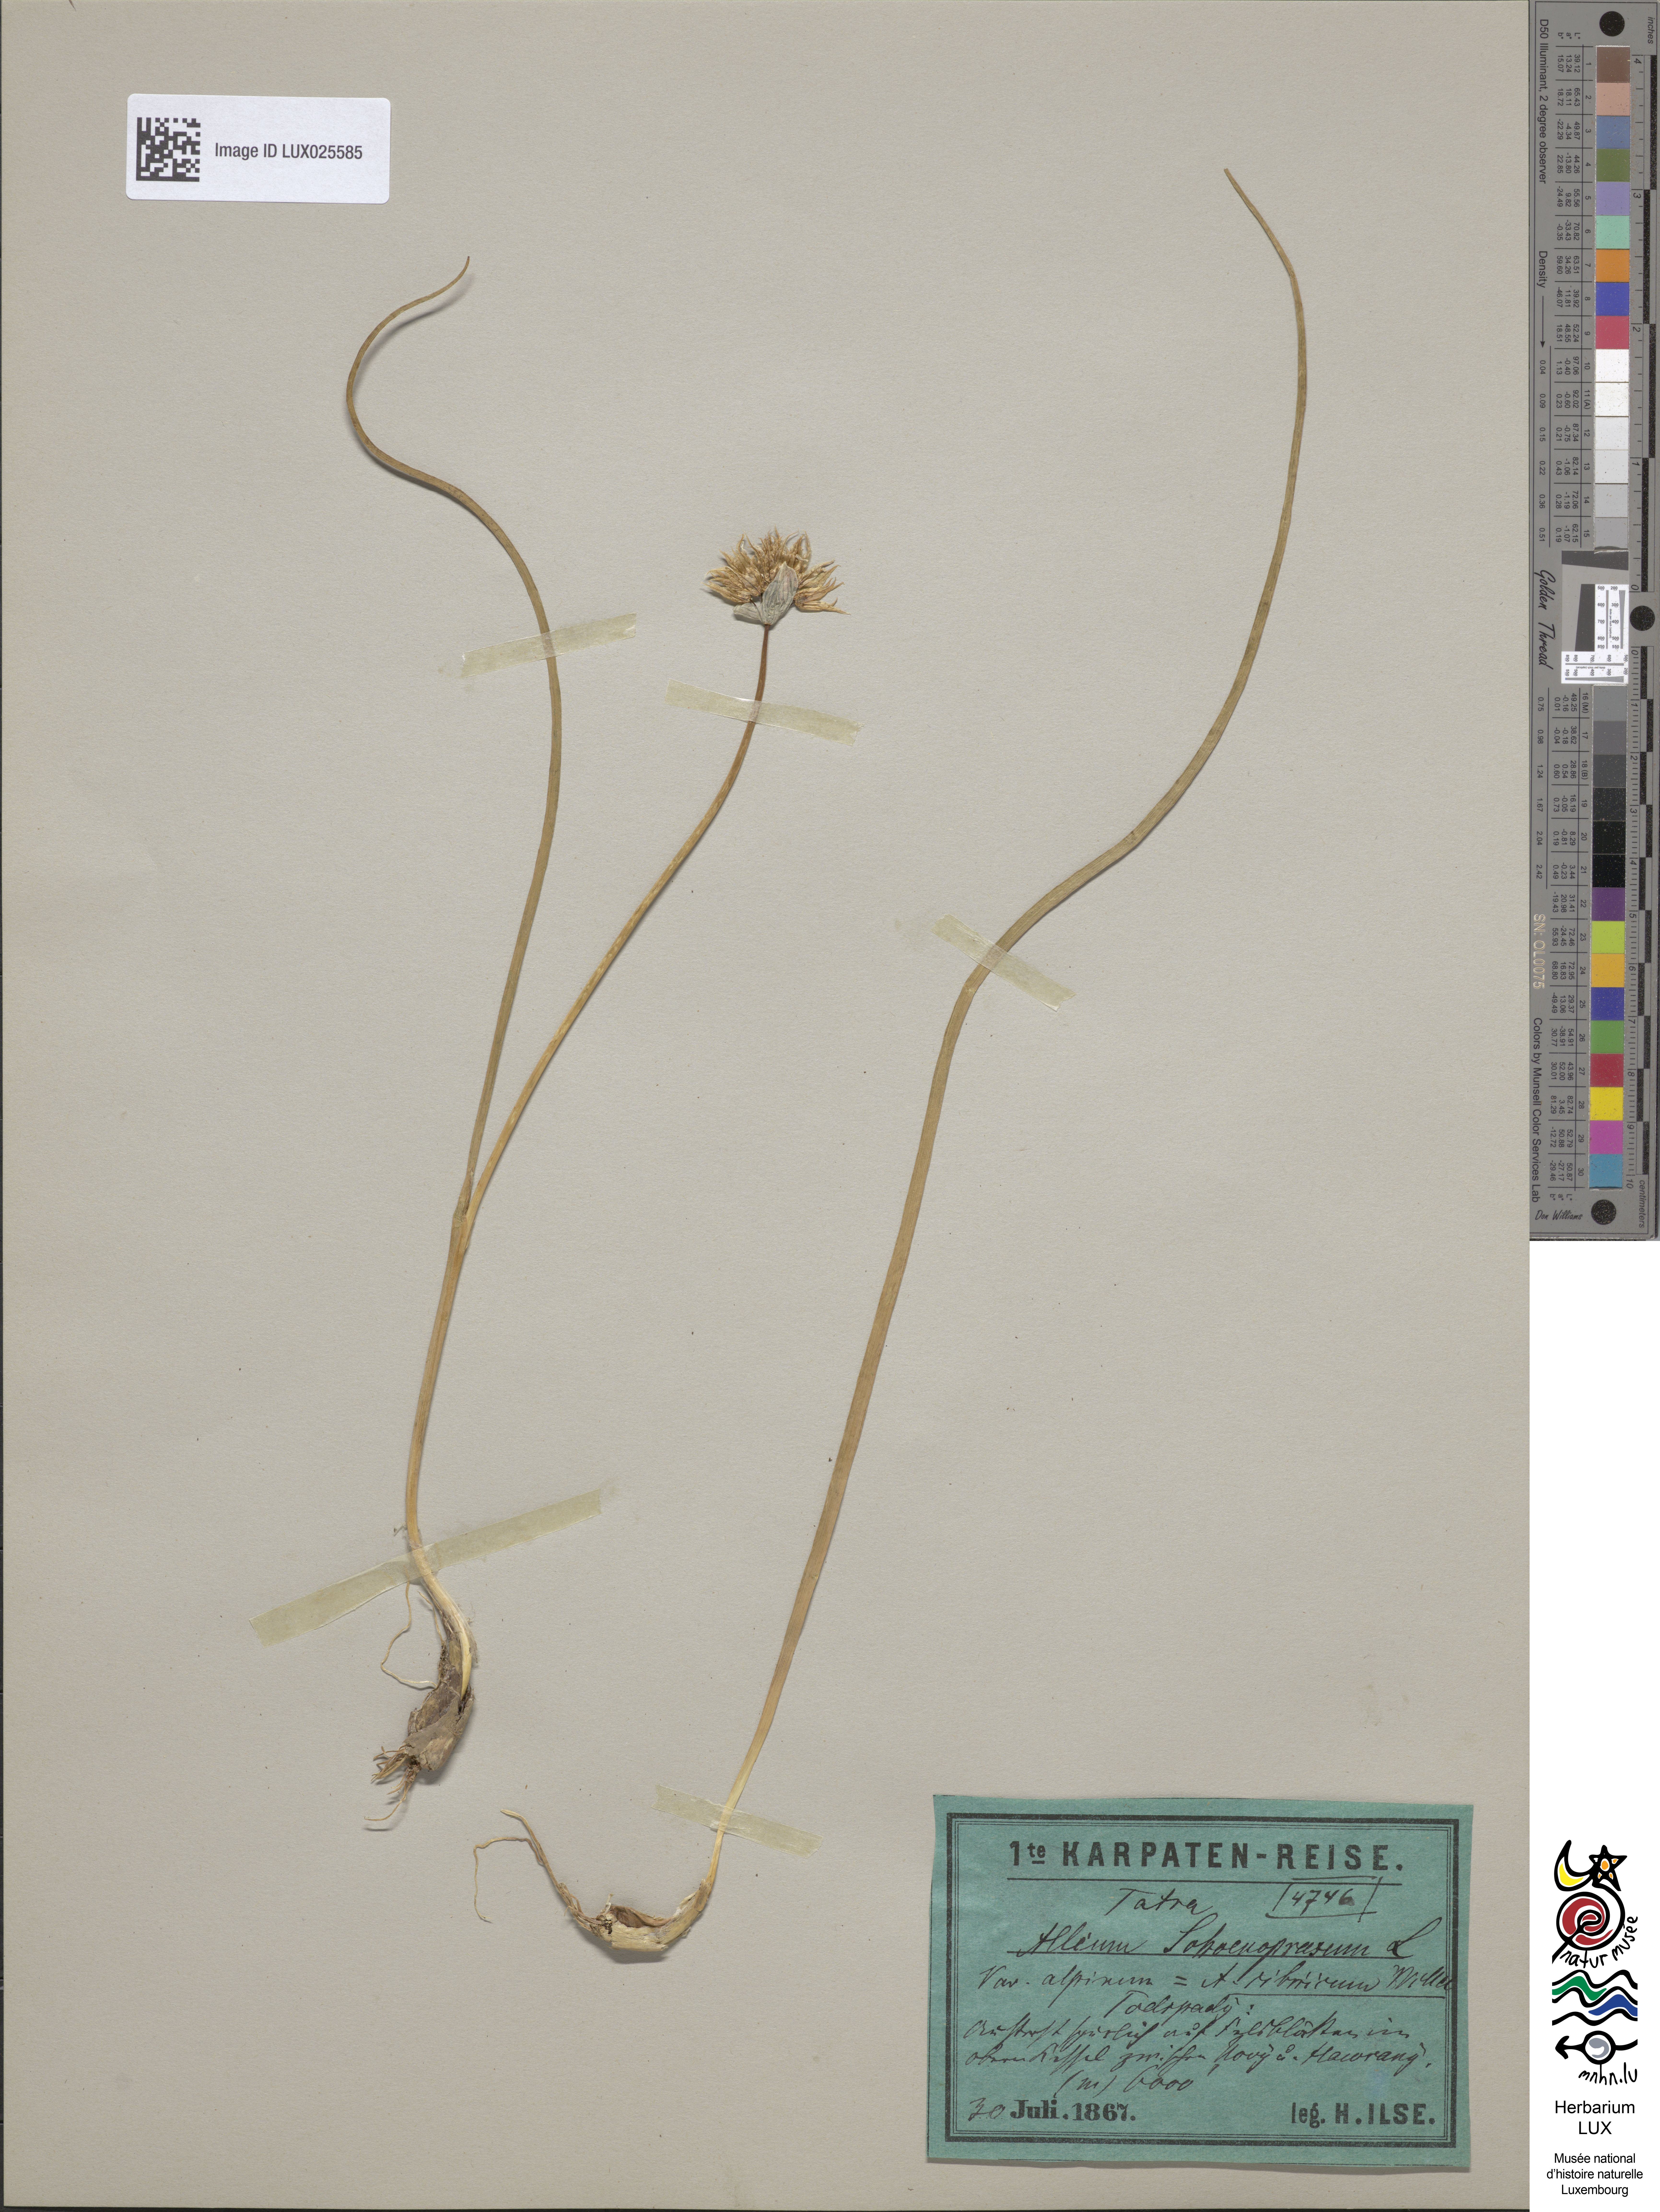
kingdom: Plantae
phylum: Tracheophyta
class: Liliopsida
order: Asparagales
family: Amaryllidaceae
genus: Allium
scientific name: Allium schoenoprasum
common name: Chives
